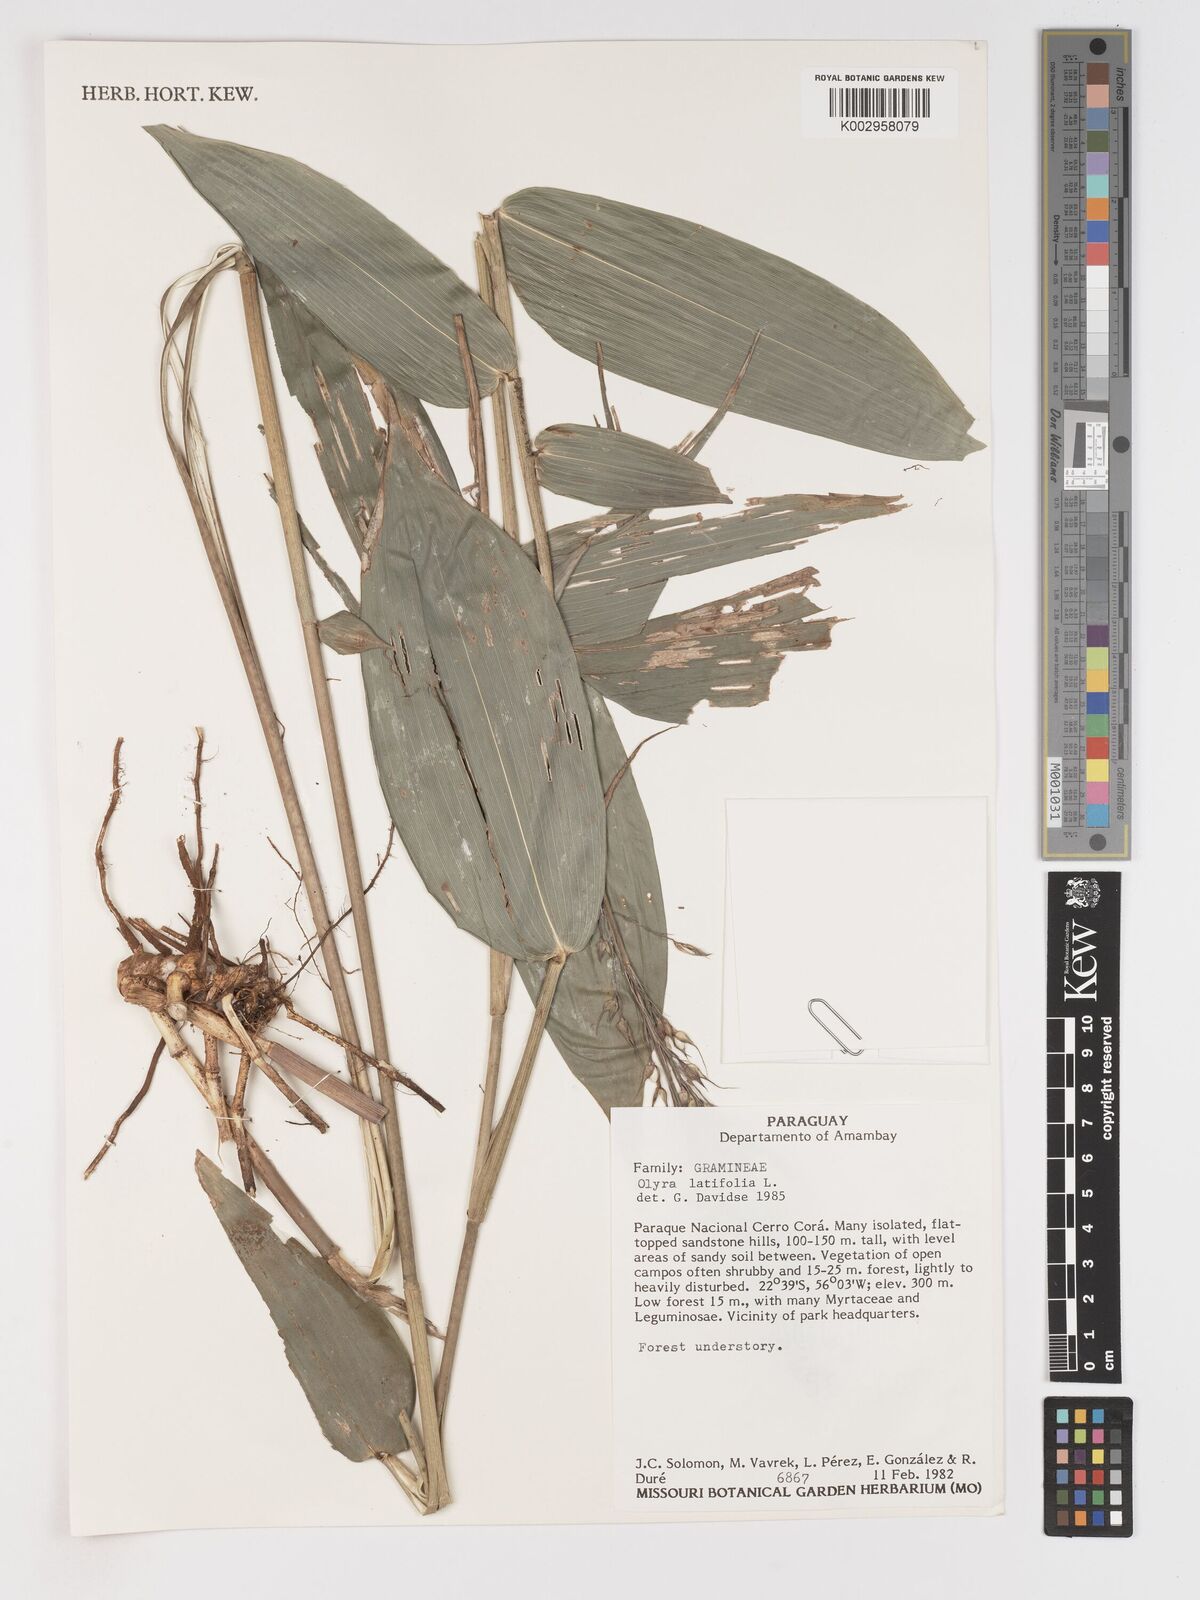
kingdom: Plantae
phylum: Tracheophyta
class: Liliopsida
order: Poales
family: Poaceae
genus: Olyra
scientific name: Olyra latifolia
